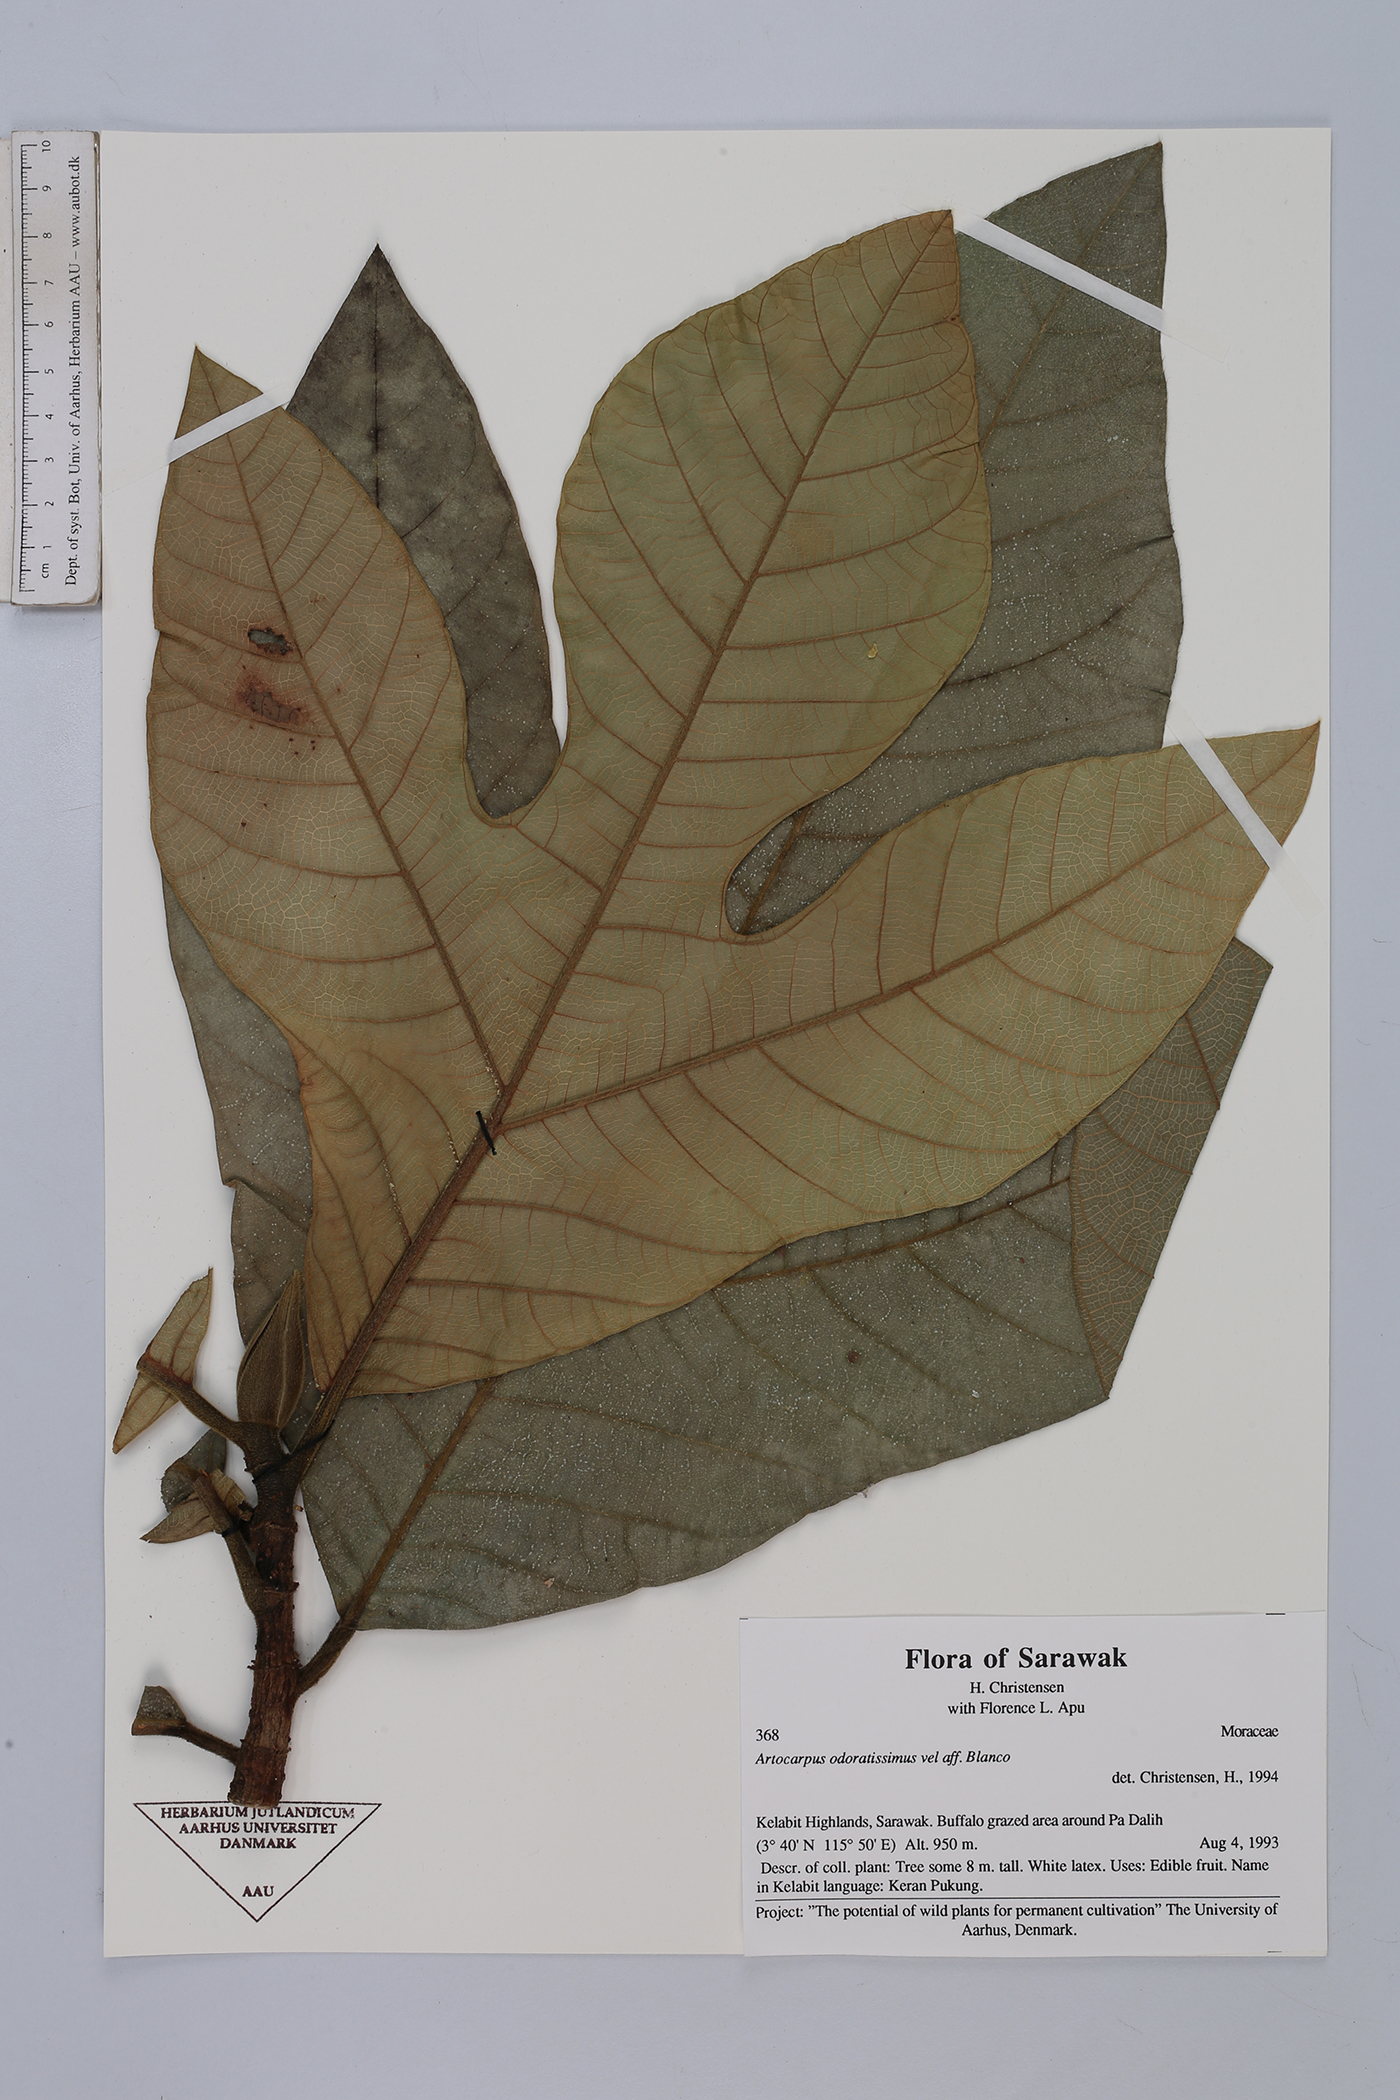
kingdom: Plantae
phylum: Tracheophyta
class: Magnoliopsida
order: Rosales
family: Moraceae
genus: Artocarpus
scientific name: Artocarpus odoratissimus
